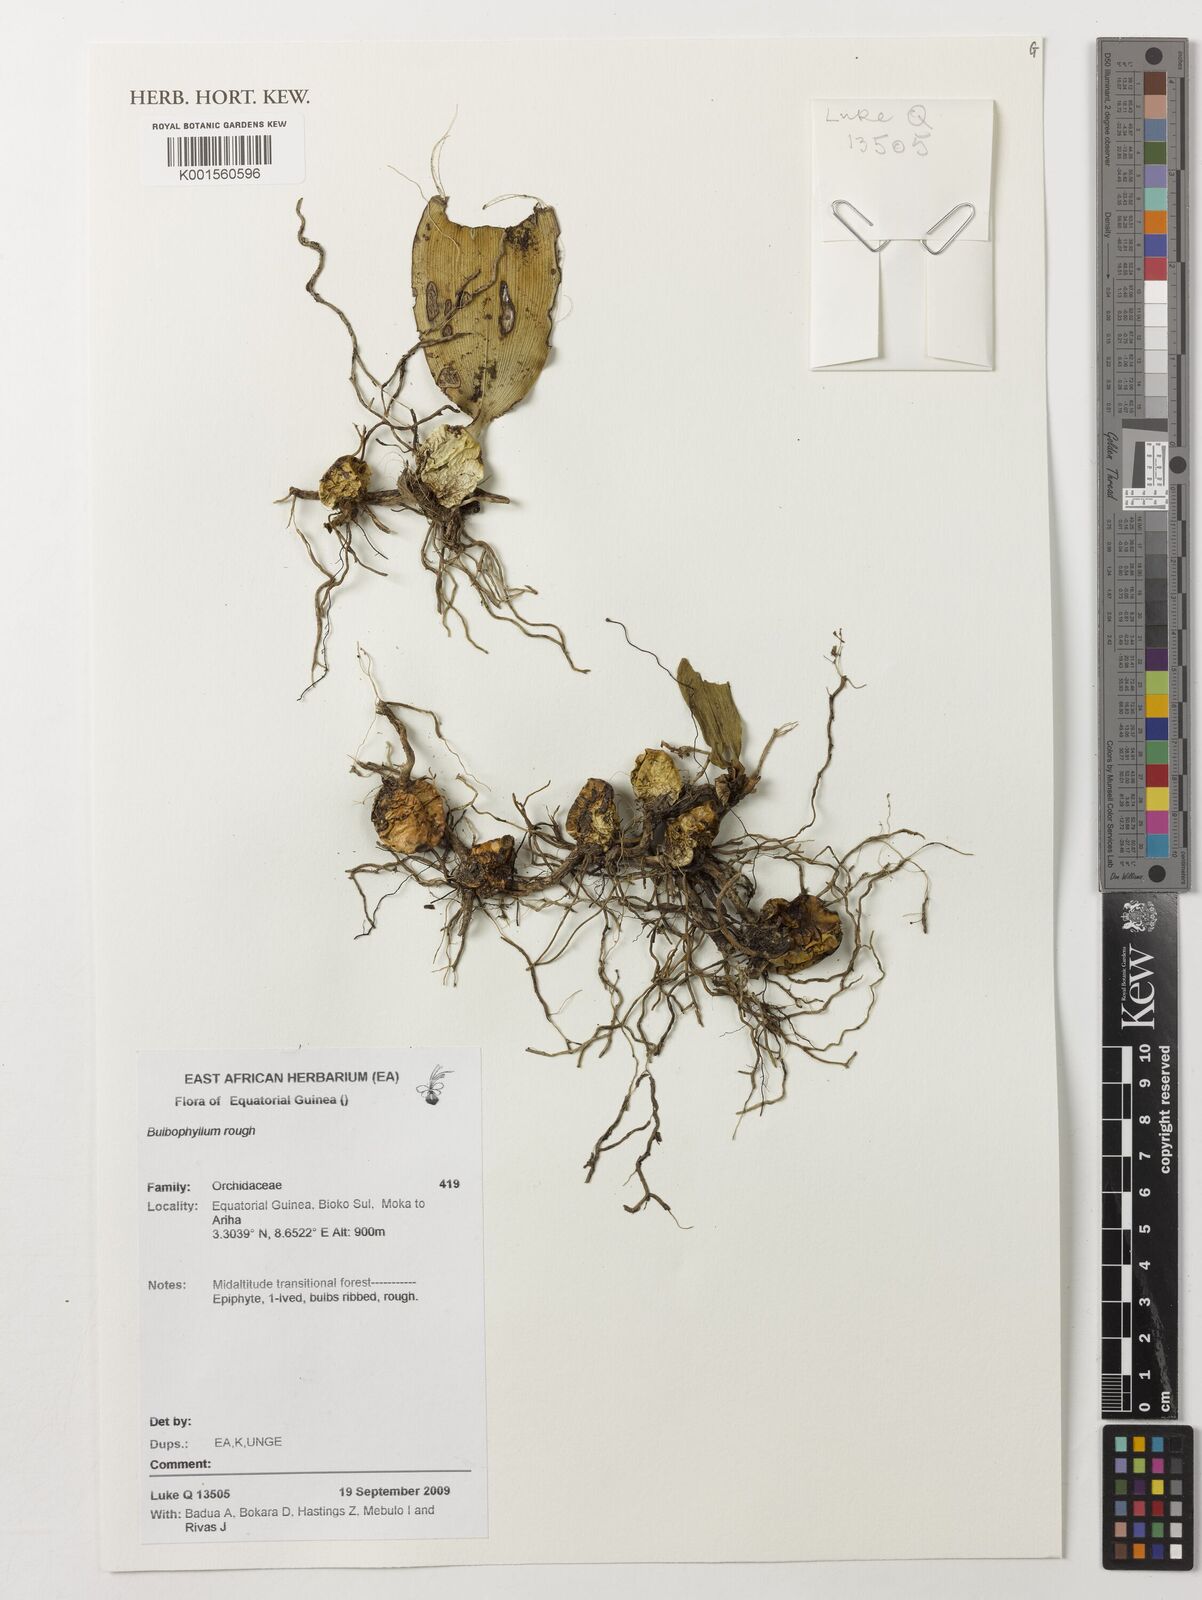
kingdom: Plantae
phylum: Tracheophyta
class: Liliopsida
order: Asparagales
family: Orchidaceae
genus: Bulbophyllum
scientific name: Bulbophyllum
